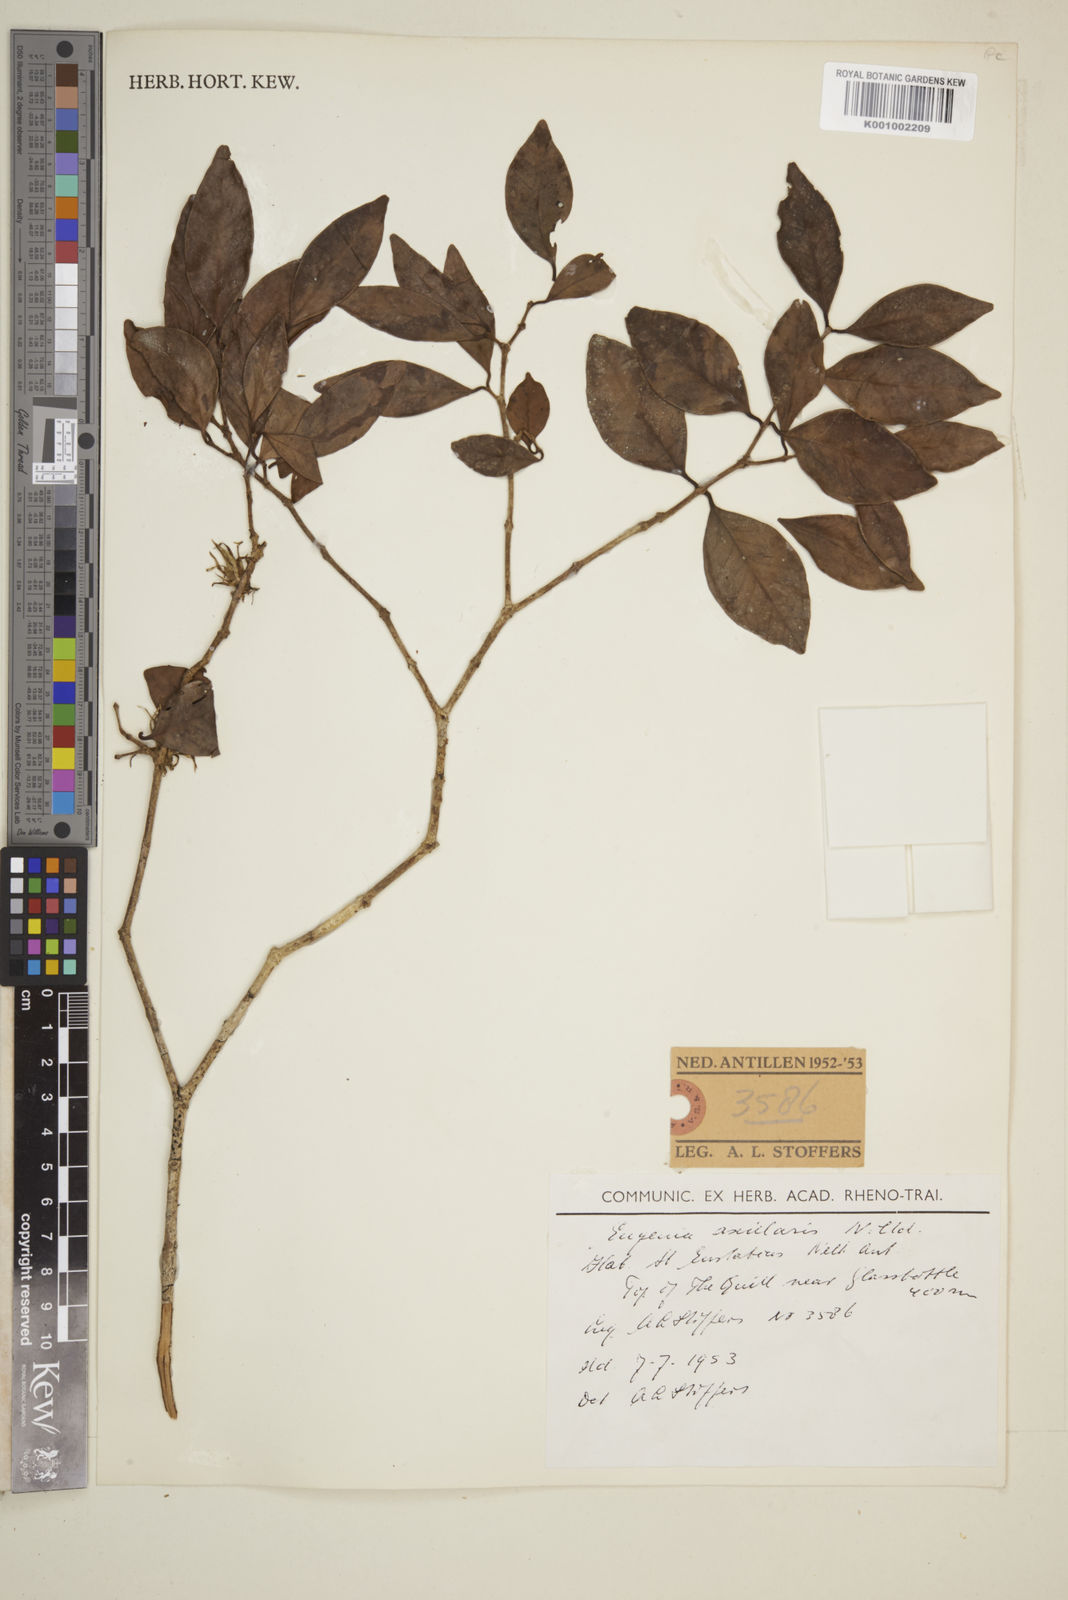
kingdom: Plantae
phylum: Tracheophyta
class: Magnoliopsida
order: Myrtales
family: Myrtaceae
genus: Eugenia
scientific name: Eugenia axillaris
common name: Choaky berry
